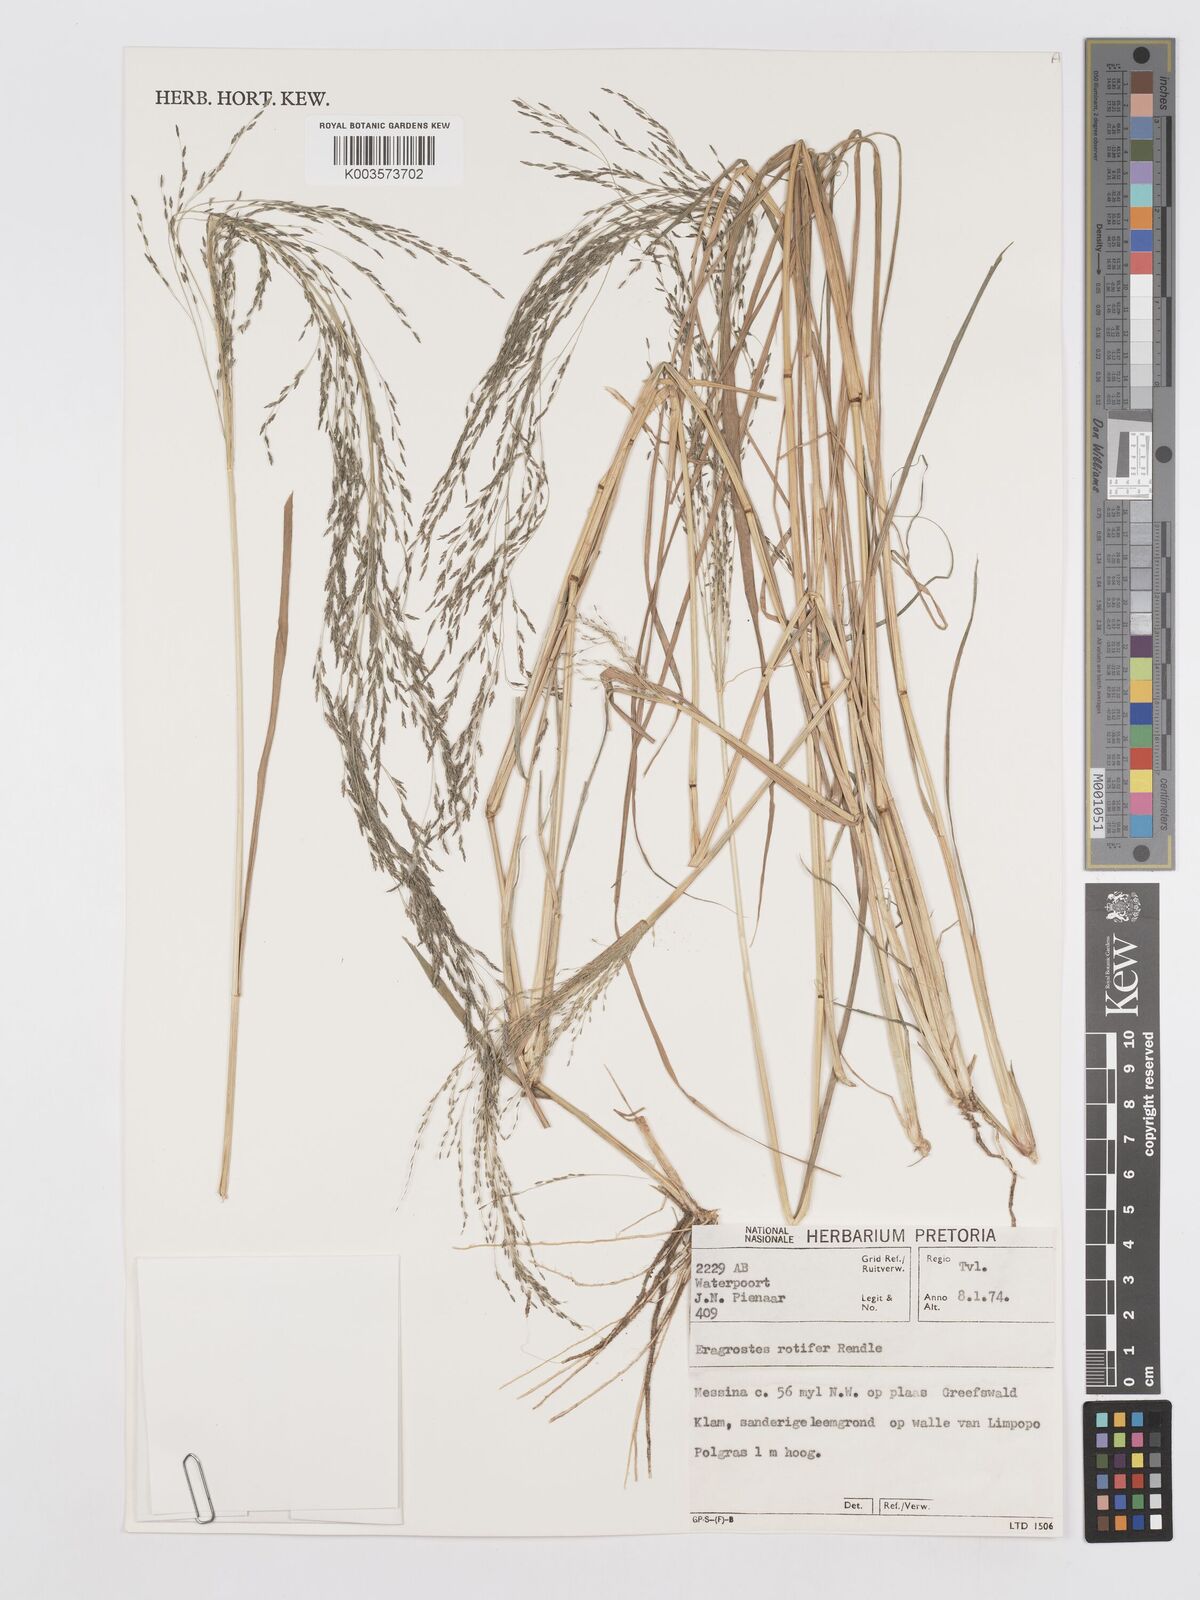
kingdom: Plantae
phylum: Tracheophyta
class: Liliopsida
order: Poales
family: Poaceae
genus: Eragrostis
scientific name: Eragrostis rotifer
